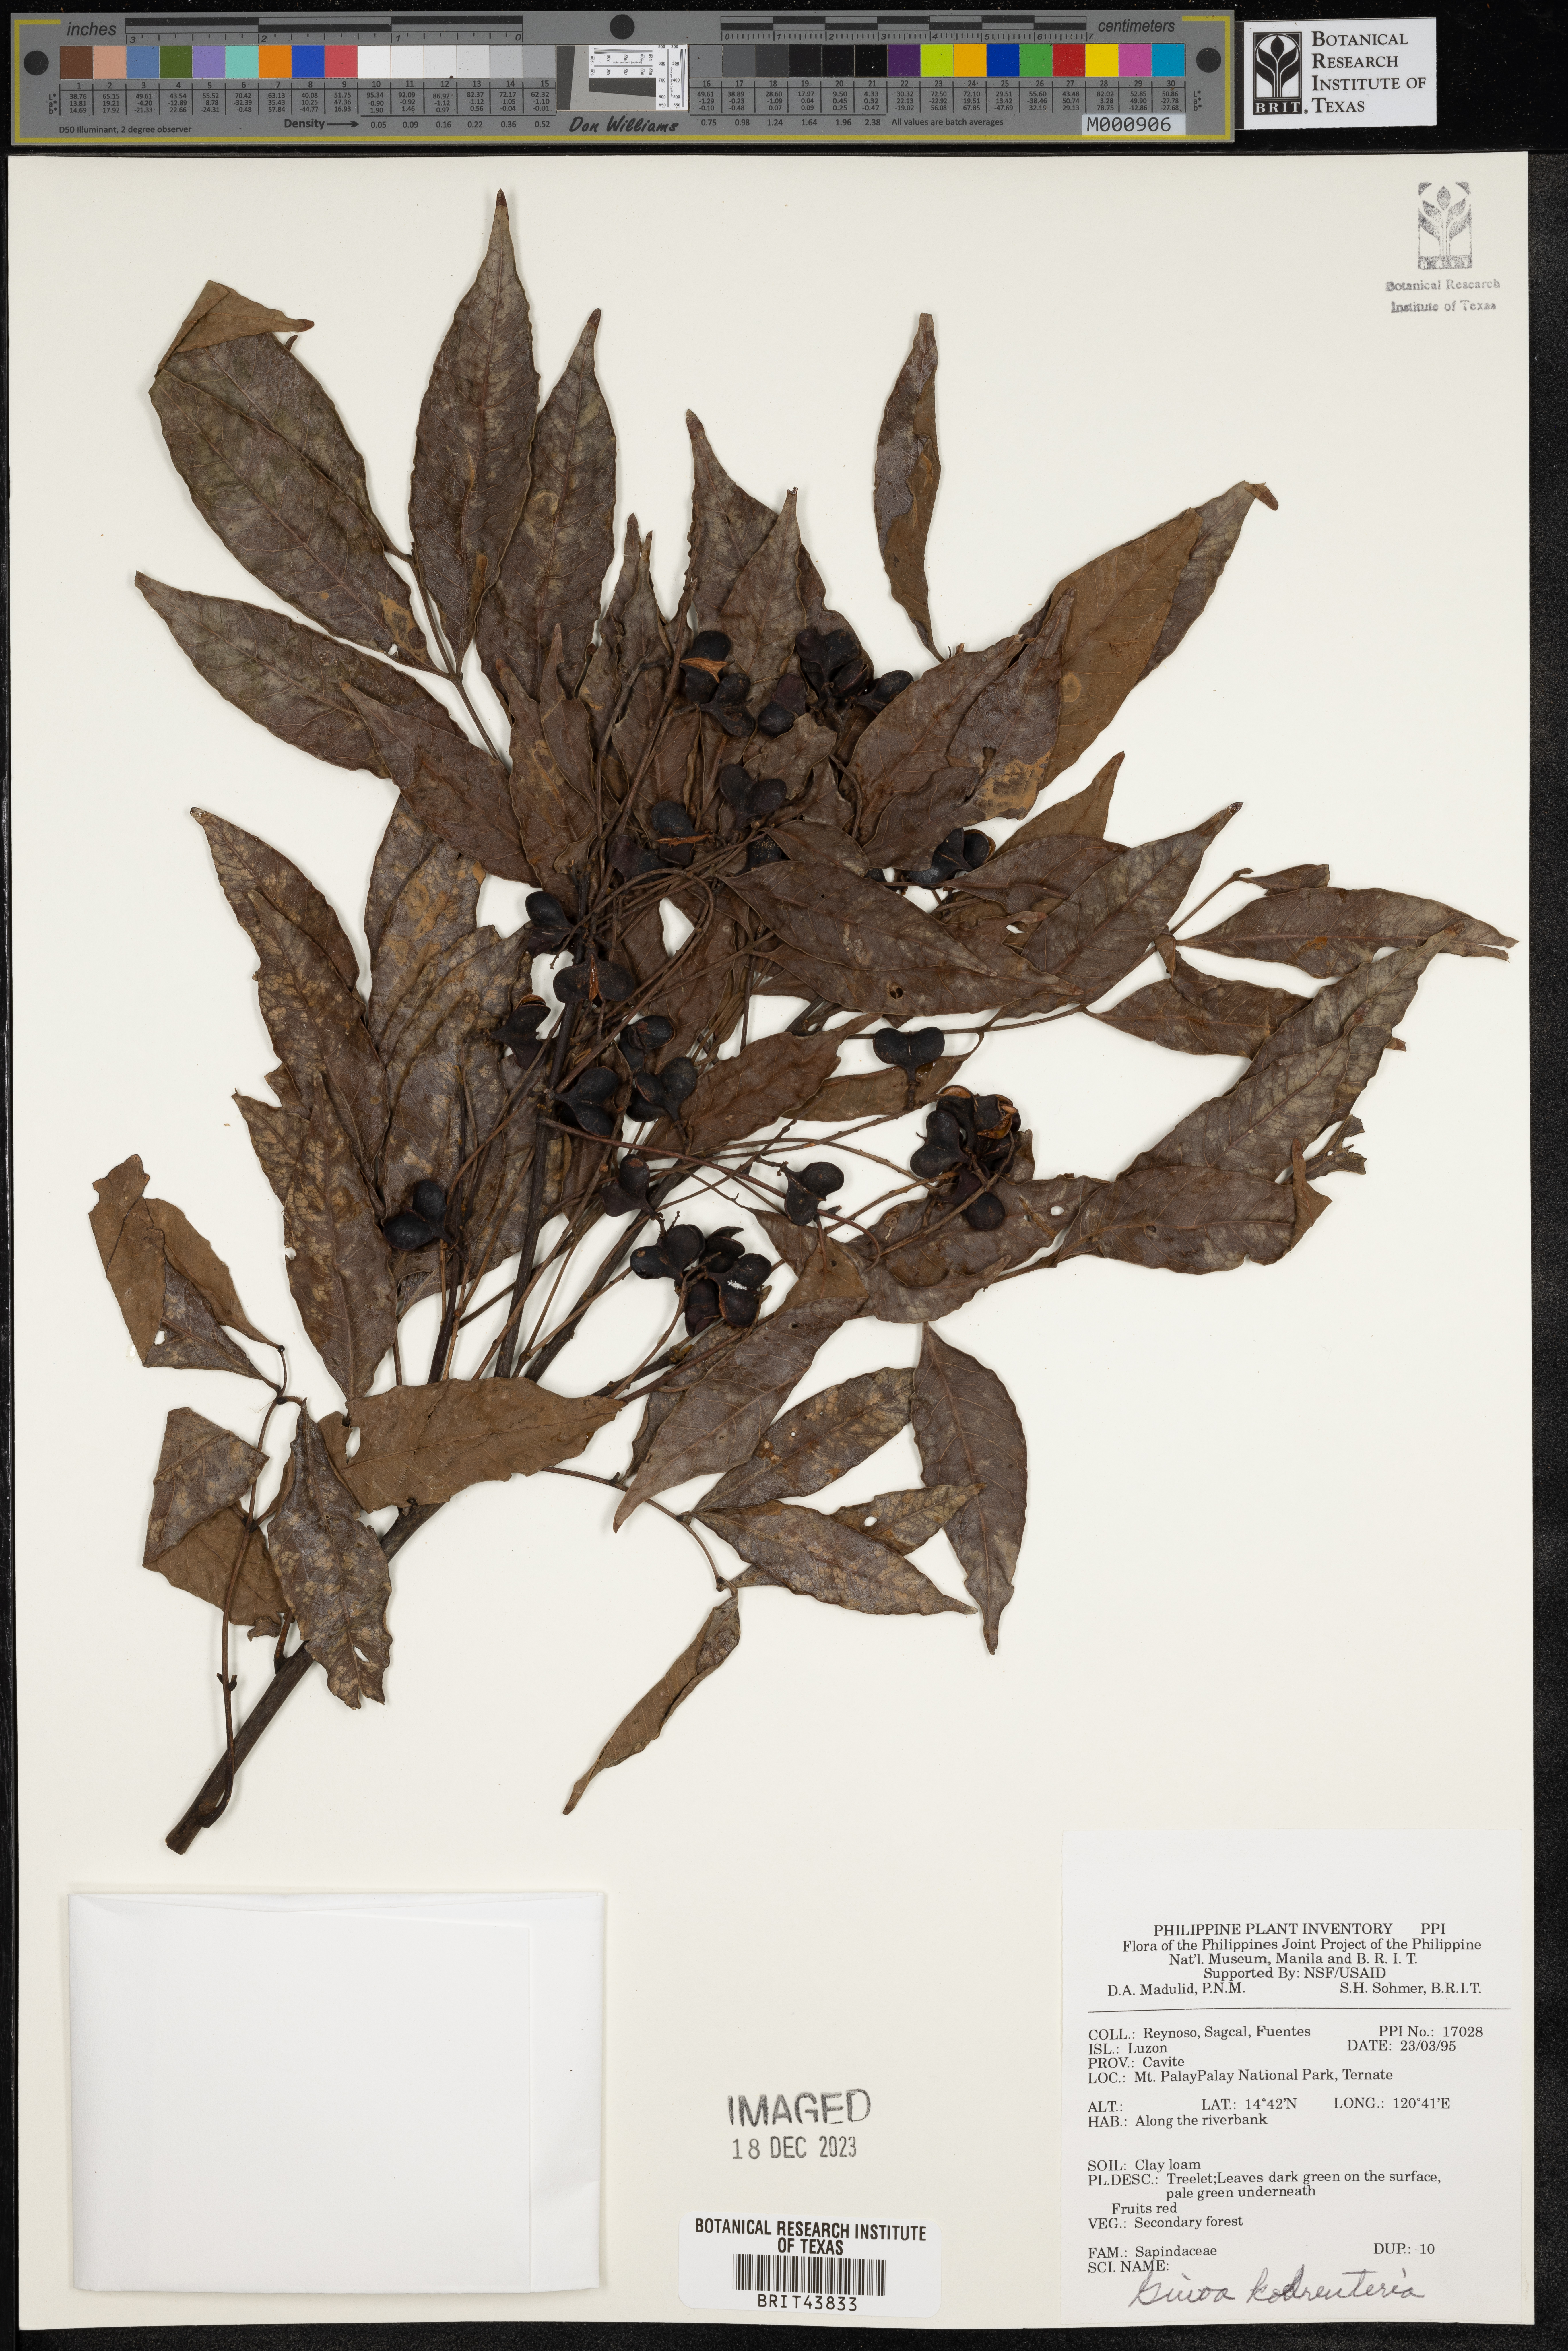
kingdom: Plantae
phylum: Tracheophyta
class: Magnoliopsida
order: Sapindales
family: Sapindaceae
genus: Guioa
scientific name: Guioa koelreuteria
